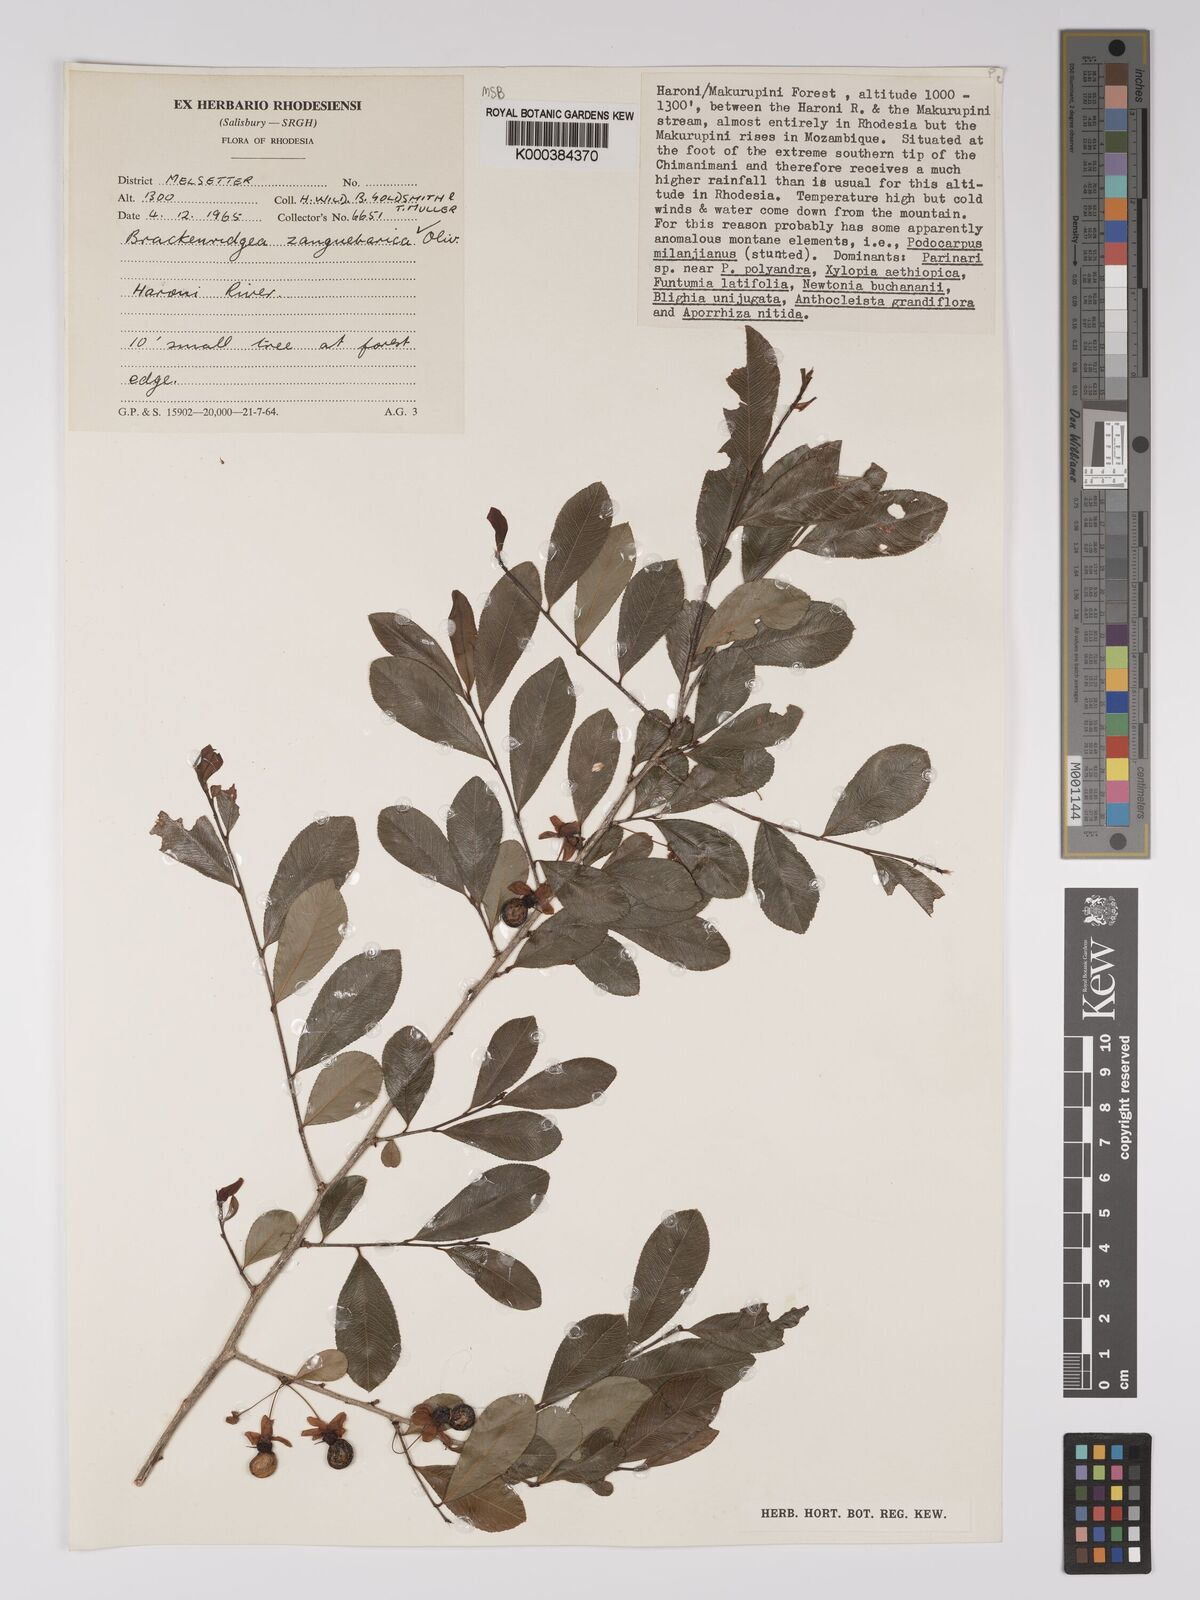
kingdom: Plantae
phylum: Tracheophyta
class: Magnoliopsida
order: Malpighiales
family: Ochnaceae
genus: Brackenridgea
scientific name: Brackenridgea zanguebarica
